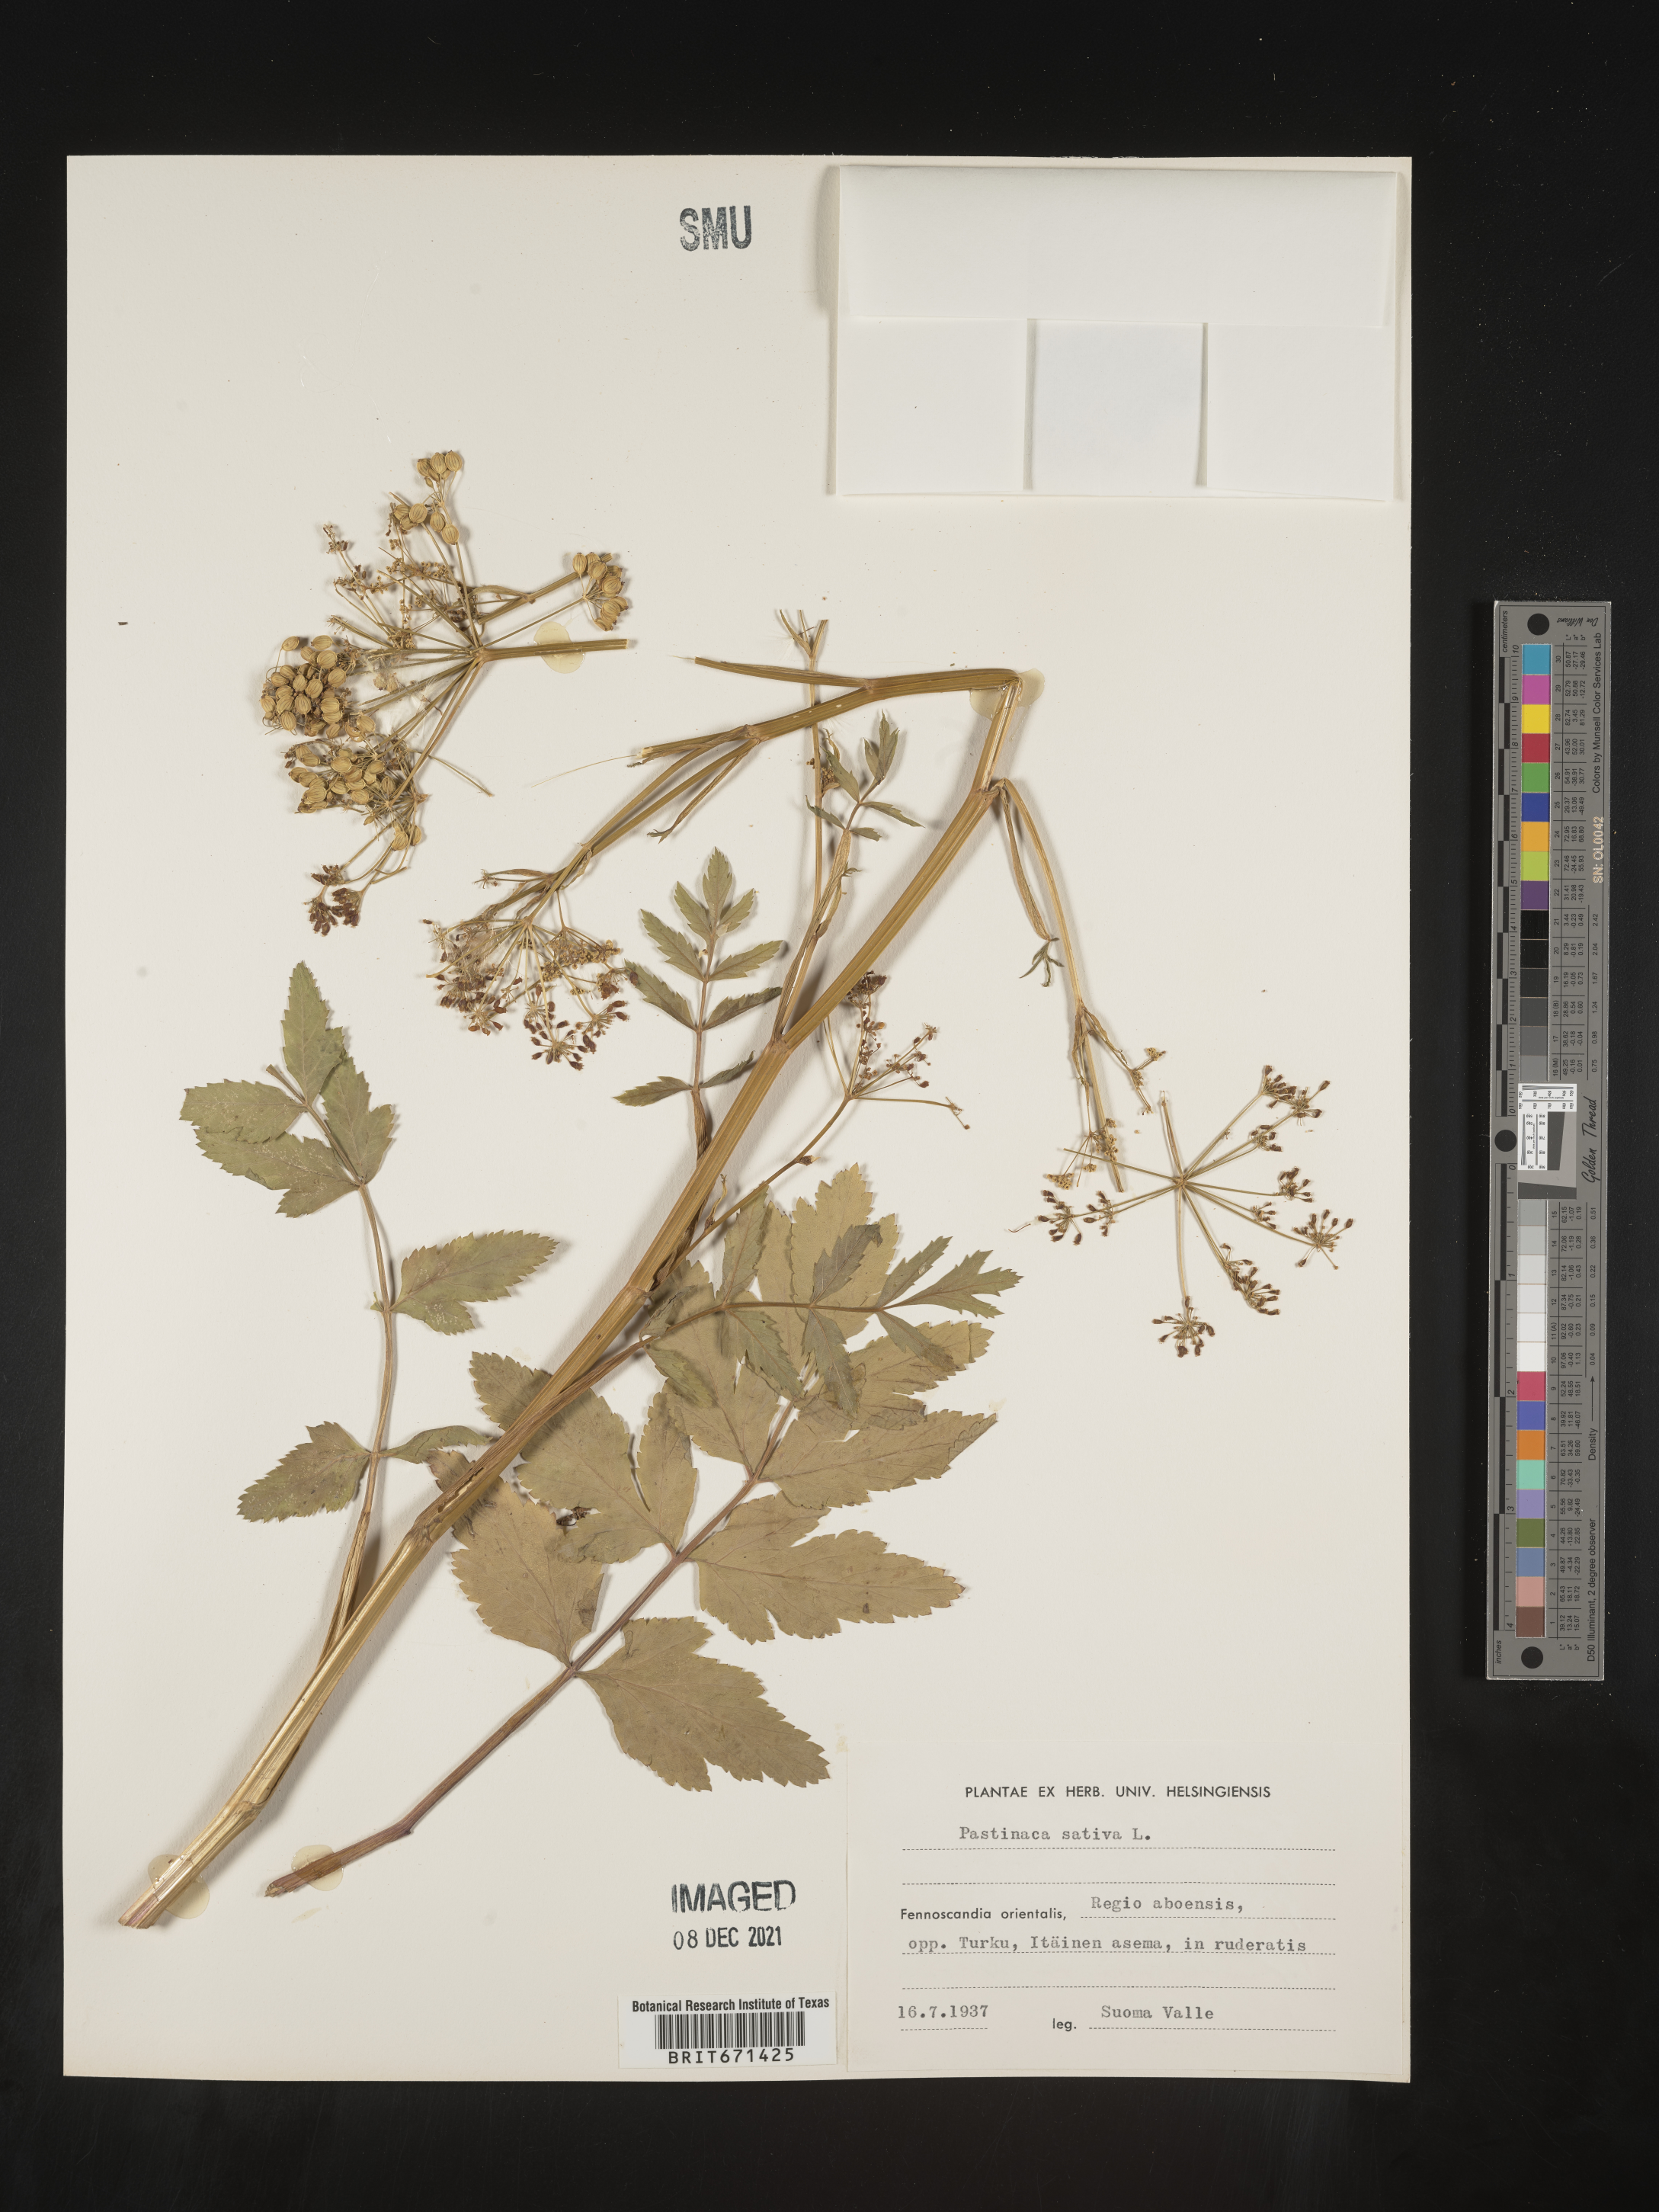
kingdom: Plantae
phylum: Tracheophyta
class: Magnoliopsida
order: Apiales
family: Apiaceae
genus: Pastinaca
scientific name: Pastinaca
